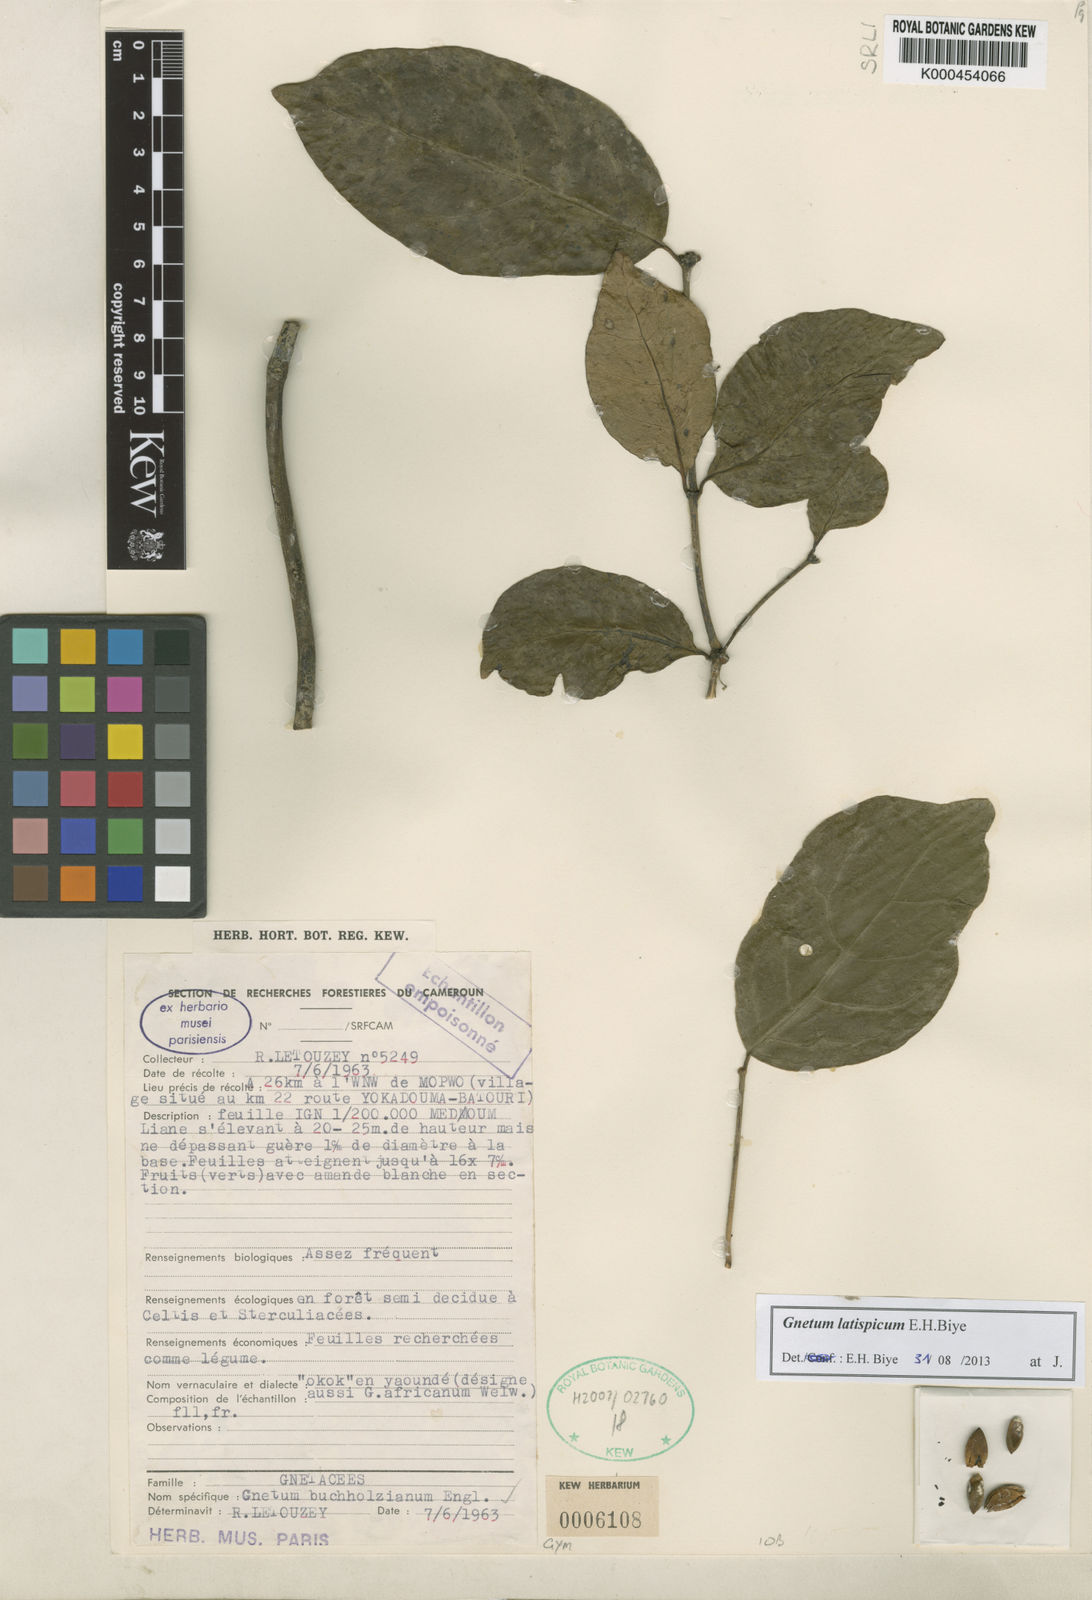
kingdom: Plantae
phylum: Tracheophyta
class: Gnetopsida
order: Gnetales
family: Gnetaceae
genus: Gnetum
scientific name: Gnetum
